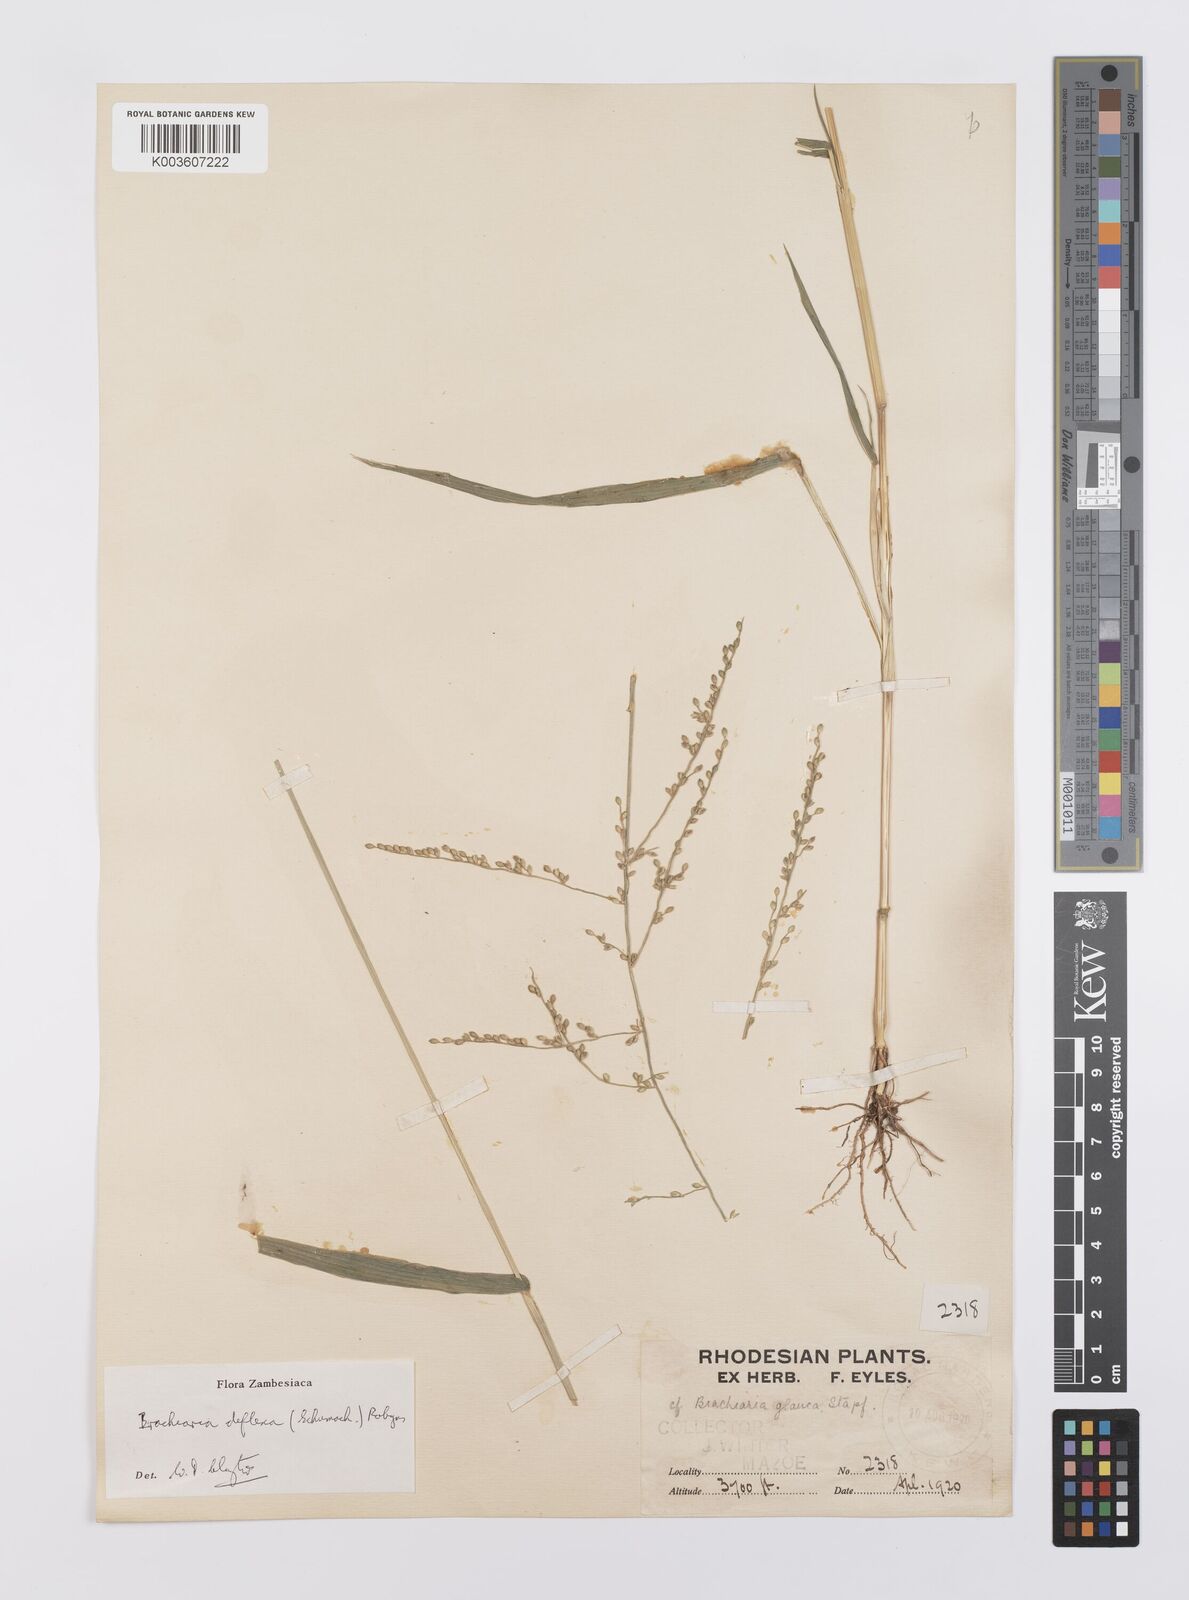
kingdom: Plantae
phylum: Tracheophyta
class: Liliopsida
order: Poales
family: Poaceae
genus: Urochloa
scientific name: Urochloa deflexa
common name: Guinea millet
